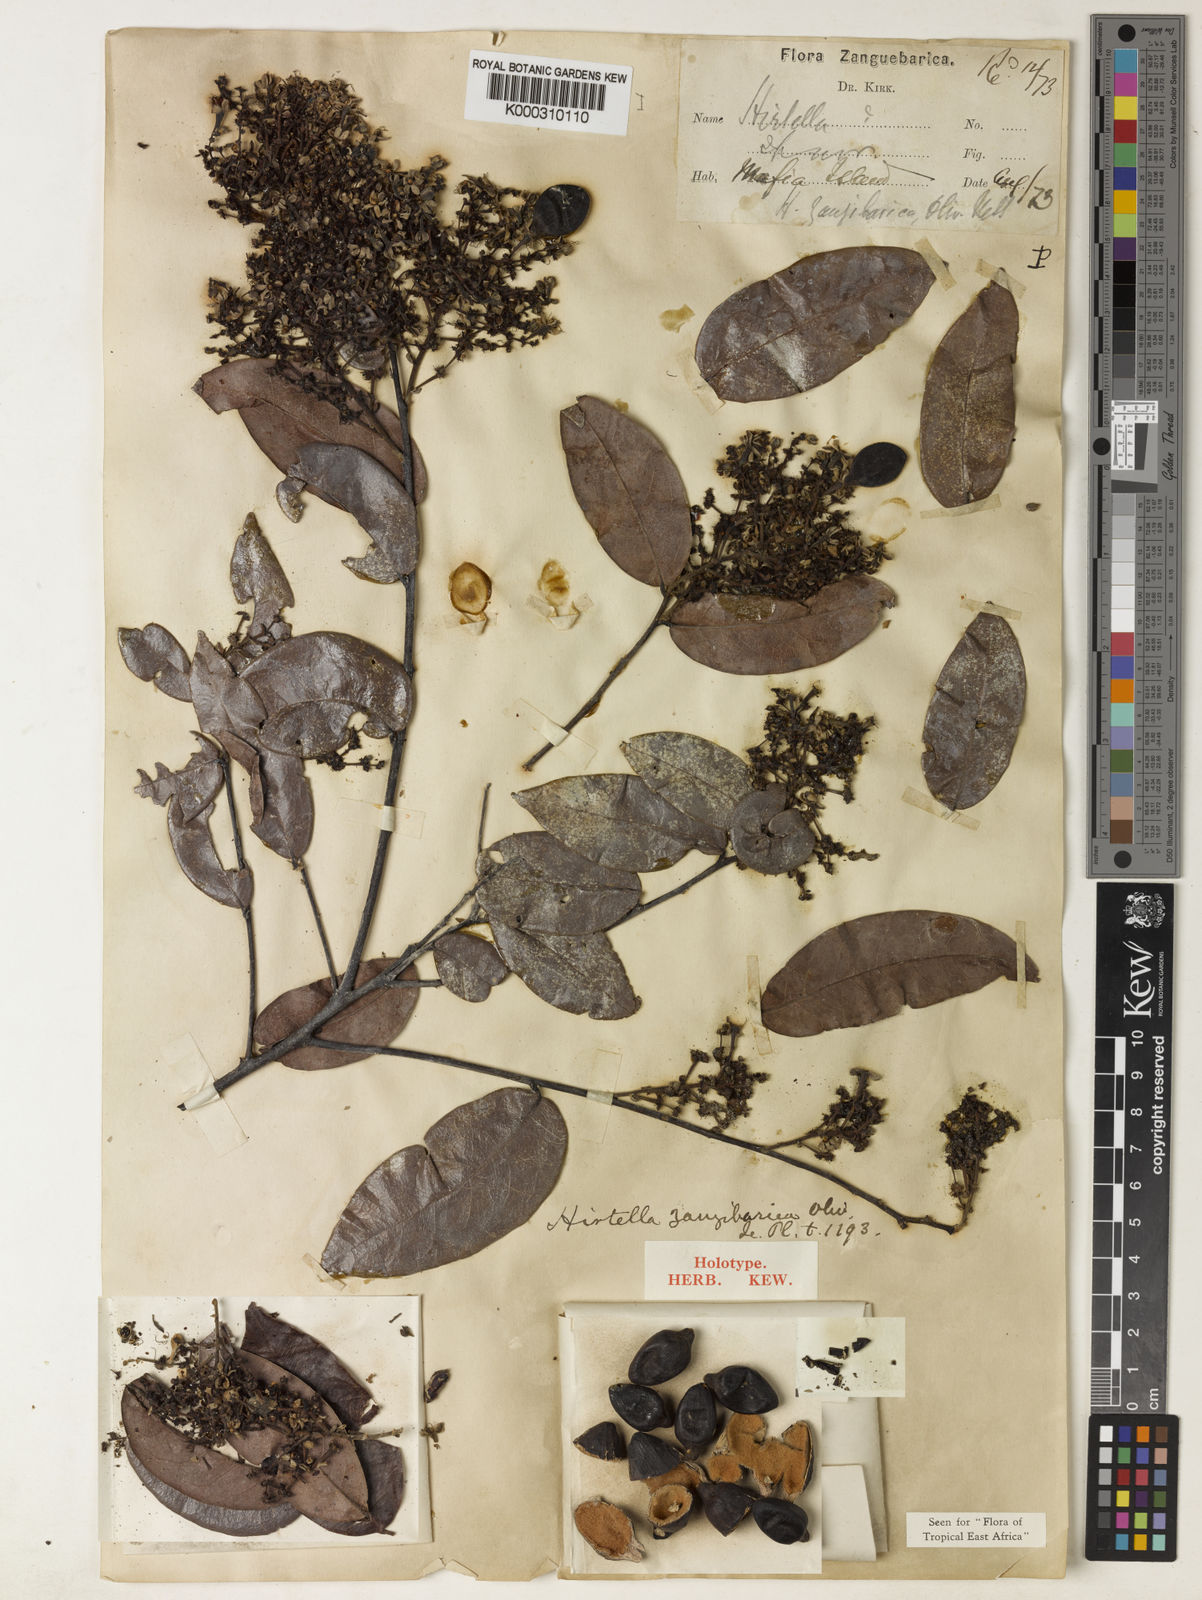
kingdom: Plantae
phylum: Tracheophyta
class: Magnoliopsida
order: Malpighiales
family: Chrysobalanaceae
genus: Hirtella
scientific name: Hirtella zanzibarica
